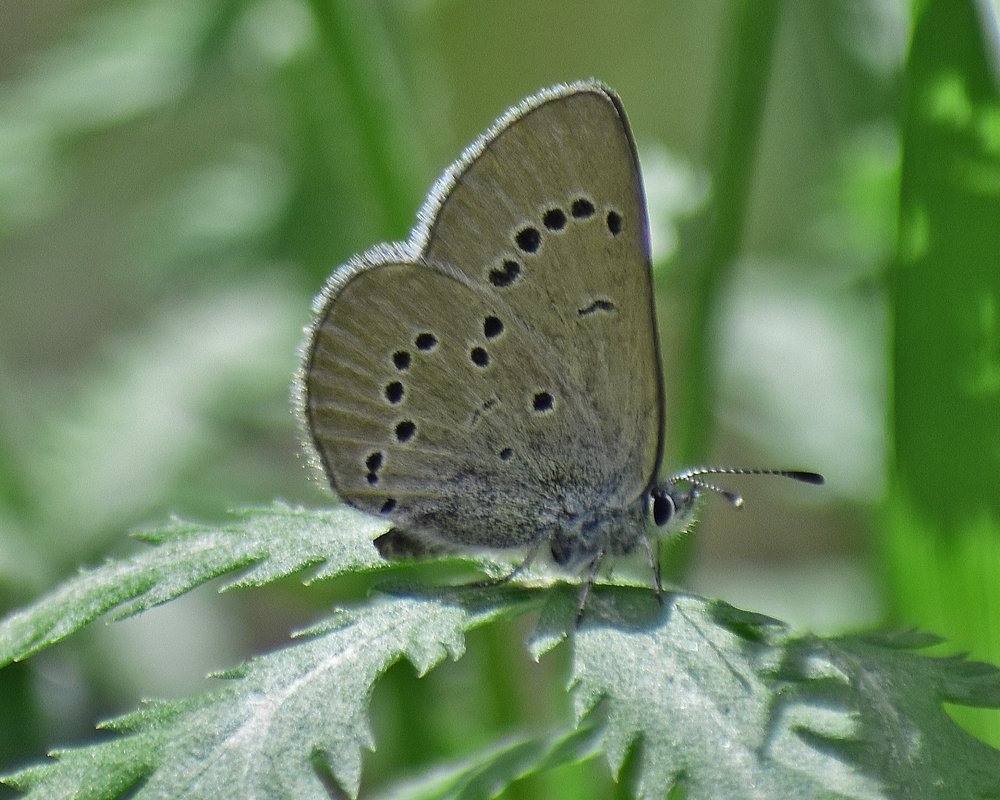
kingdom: Animalia
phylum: Arthropoda
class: Insecta
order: Lepidoptera
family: Lycaenidae
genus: Glaucopsyche
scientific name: Glaucopsyche lygdamus
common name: Silvery Blue
